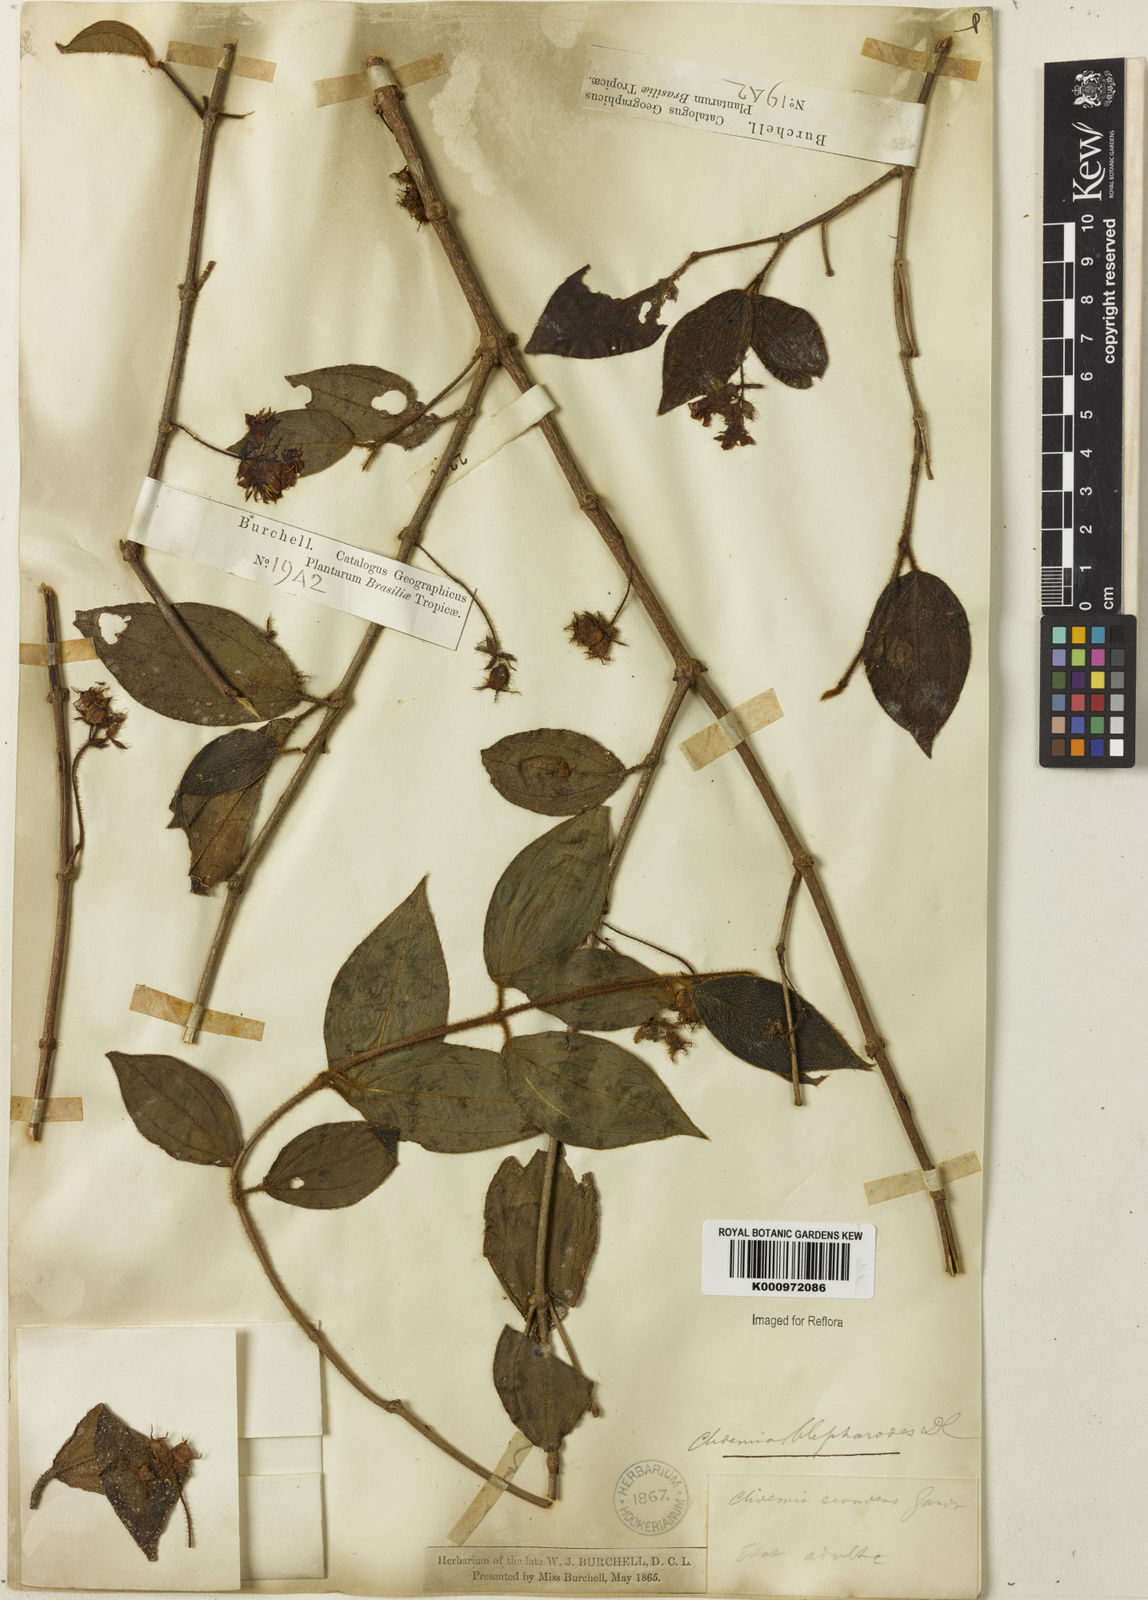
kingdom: Plantae
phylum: Tracheophyta
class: Magnoliopsida
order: Myrtales
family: Melastomataceae
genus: Miconia
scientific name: Miconia
